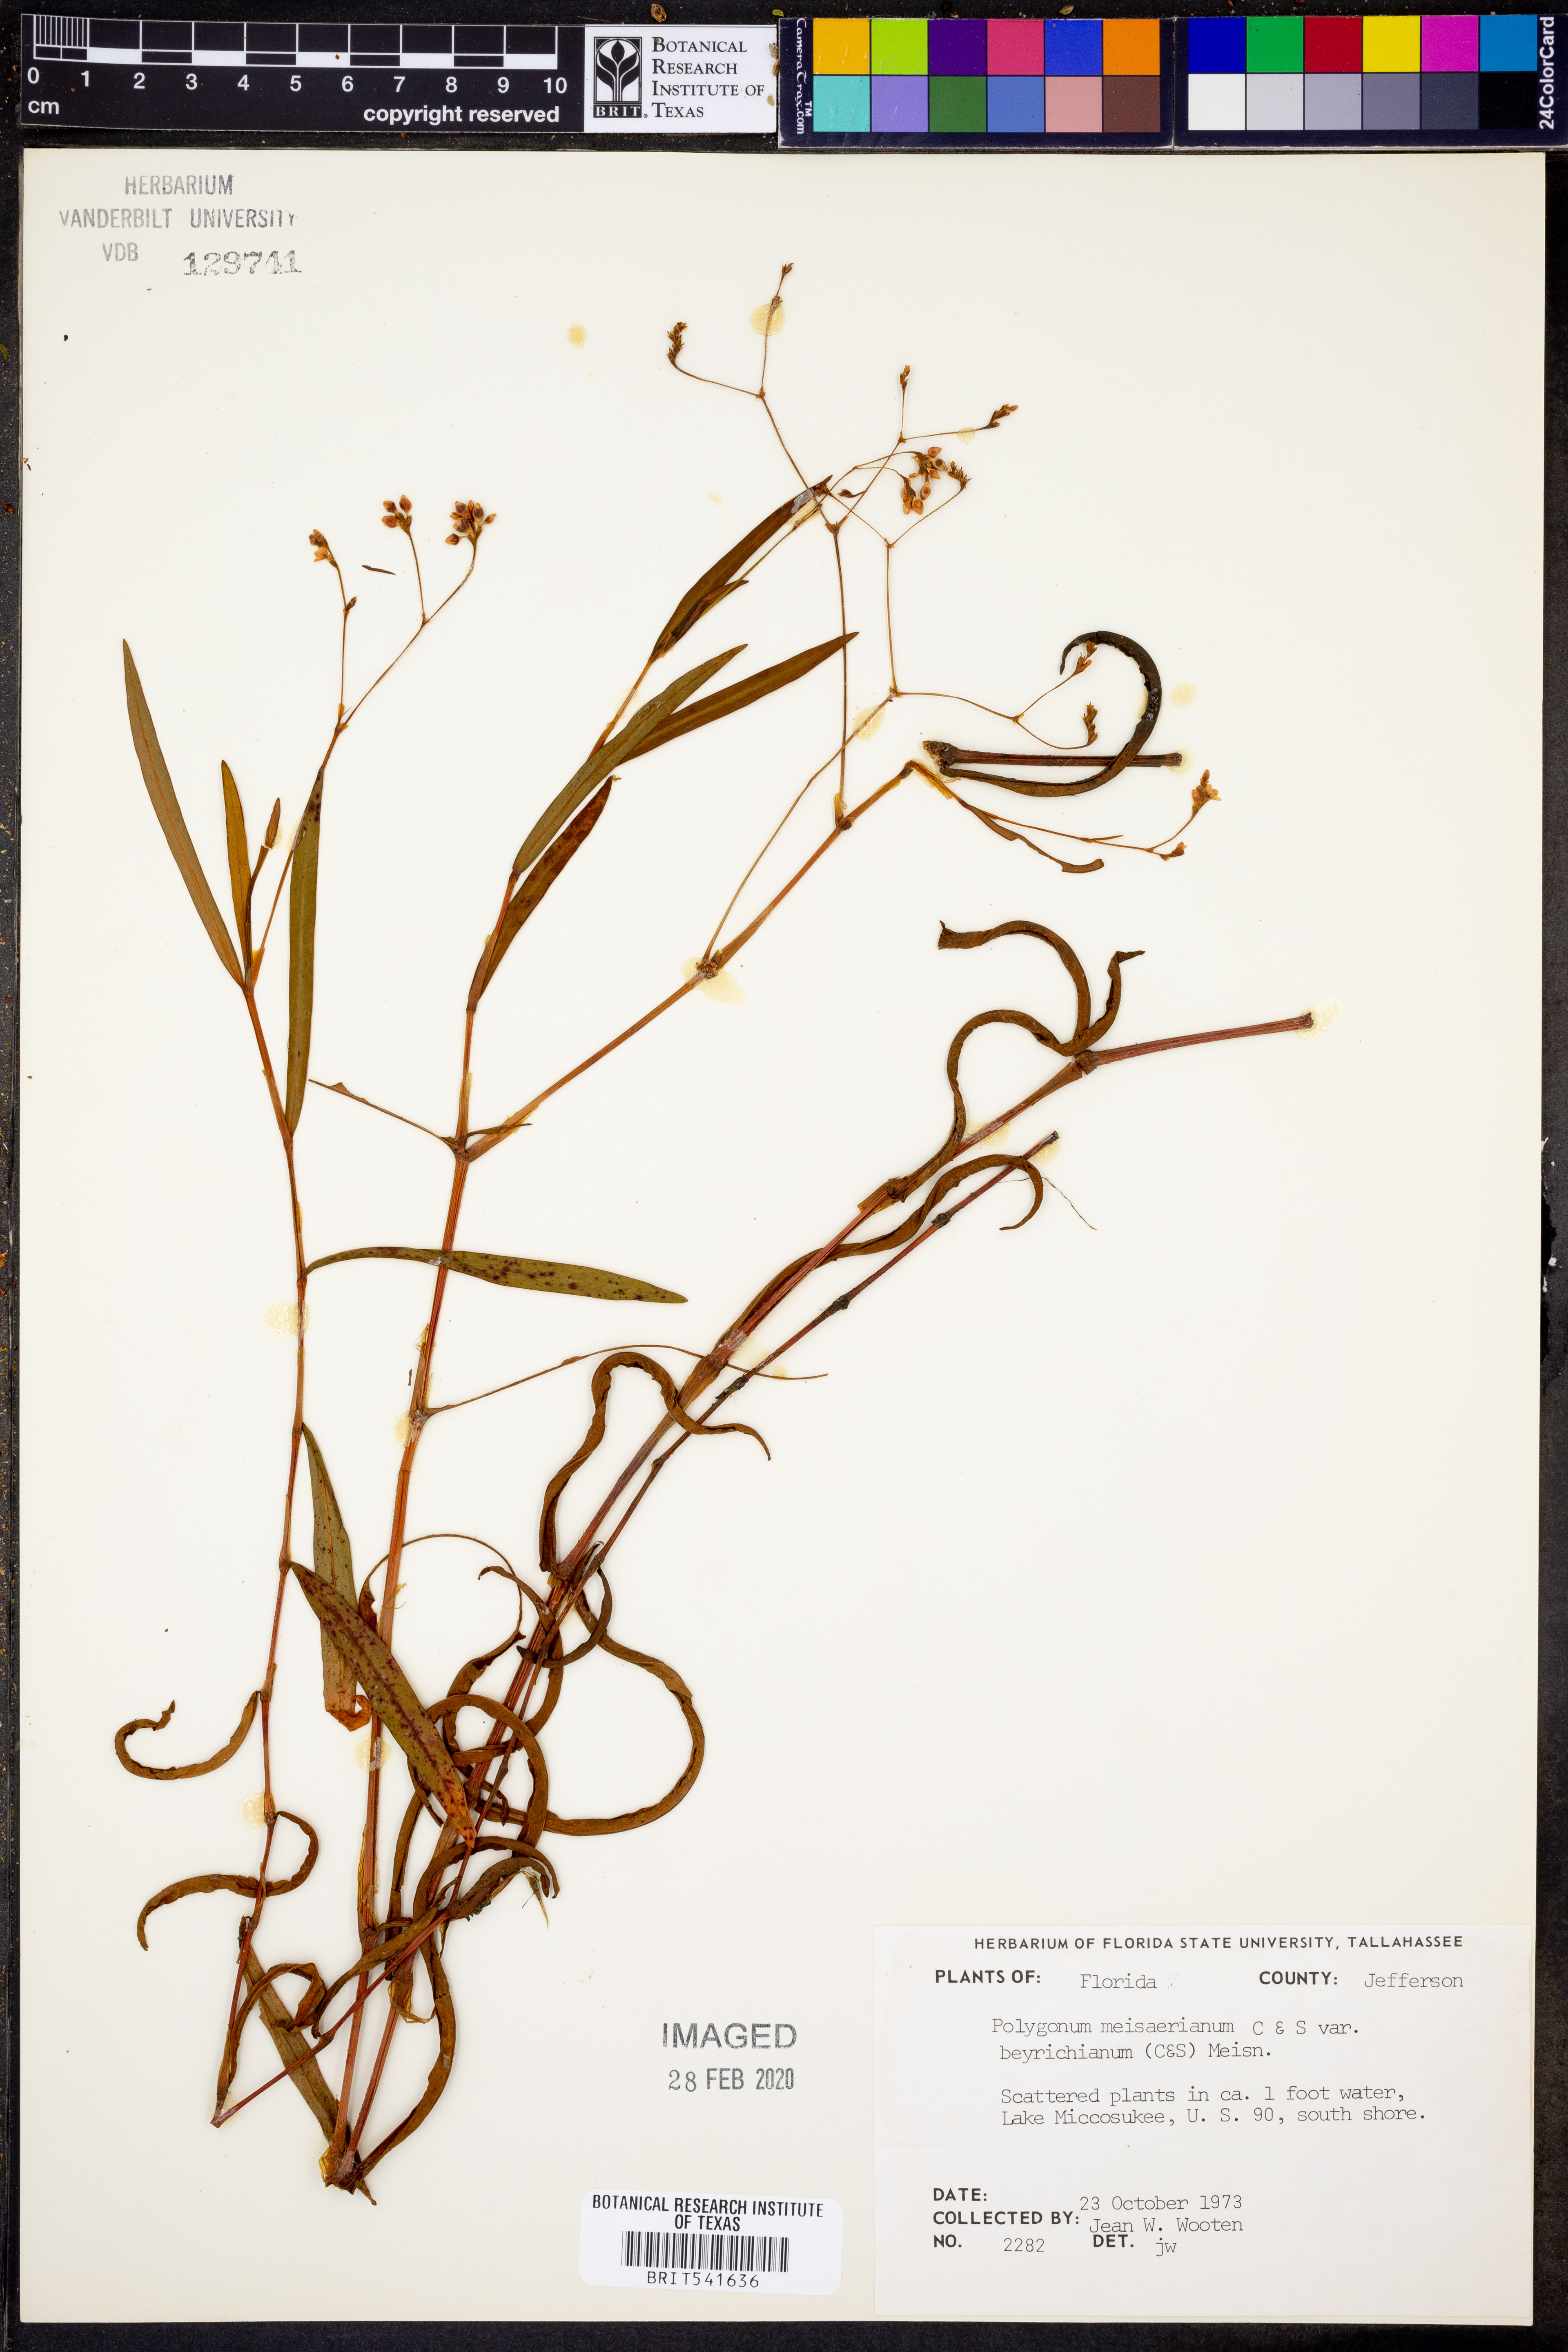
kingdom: Plantae
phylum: Tracheophyta
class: Magnoliopsida
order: Caryophyllales
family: Polygonaceae
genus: Persicaria
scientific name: Persicaria meisneriana
